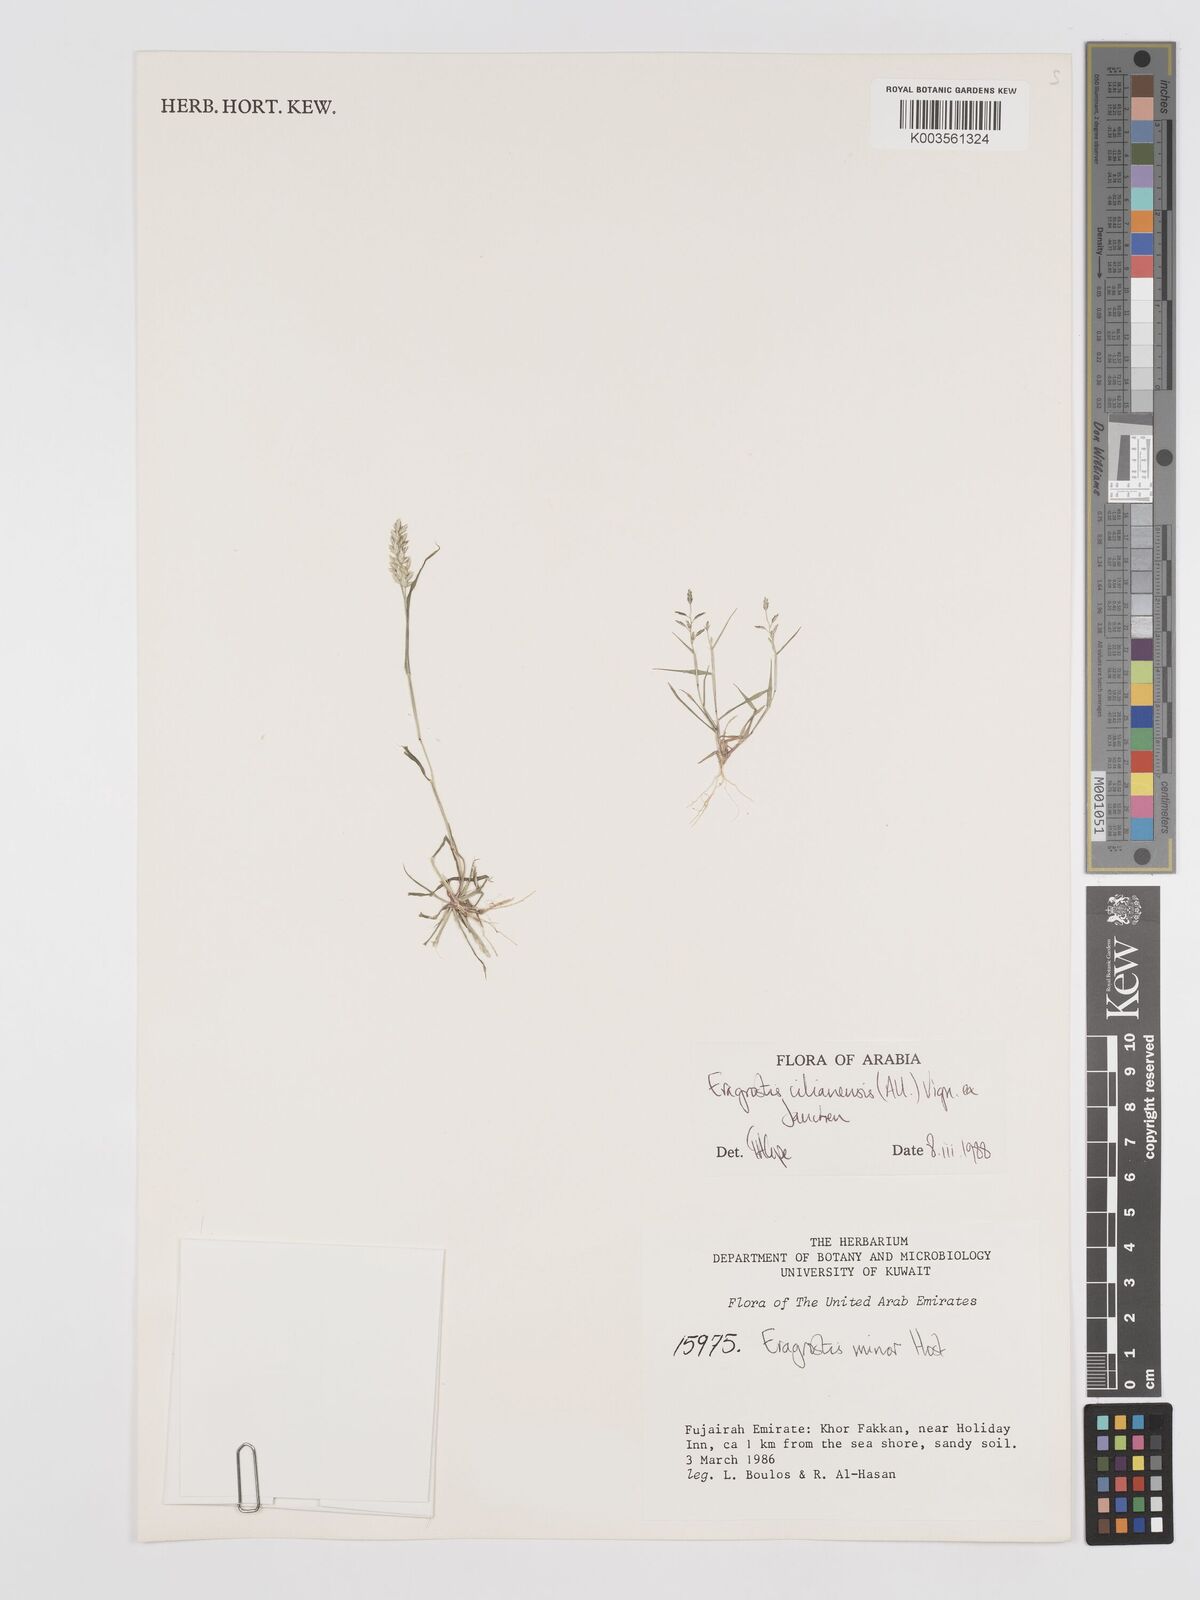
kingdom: Plantae
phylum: Tracheophyta
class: Liliopsida
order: Poales
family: Poaceae
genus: Eragrostis
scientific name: Eragrostis cilianensis
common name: Stinkgrass
